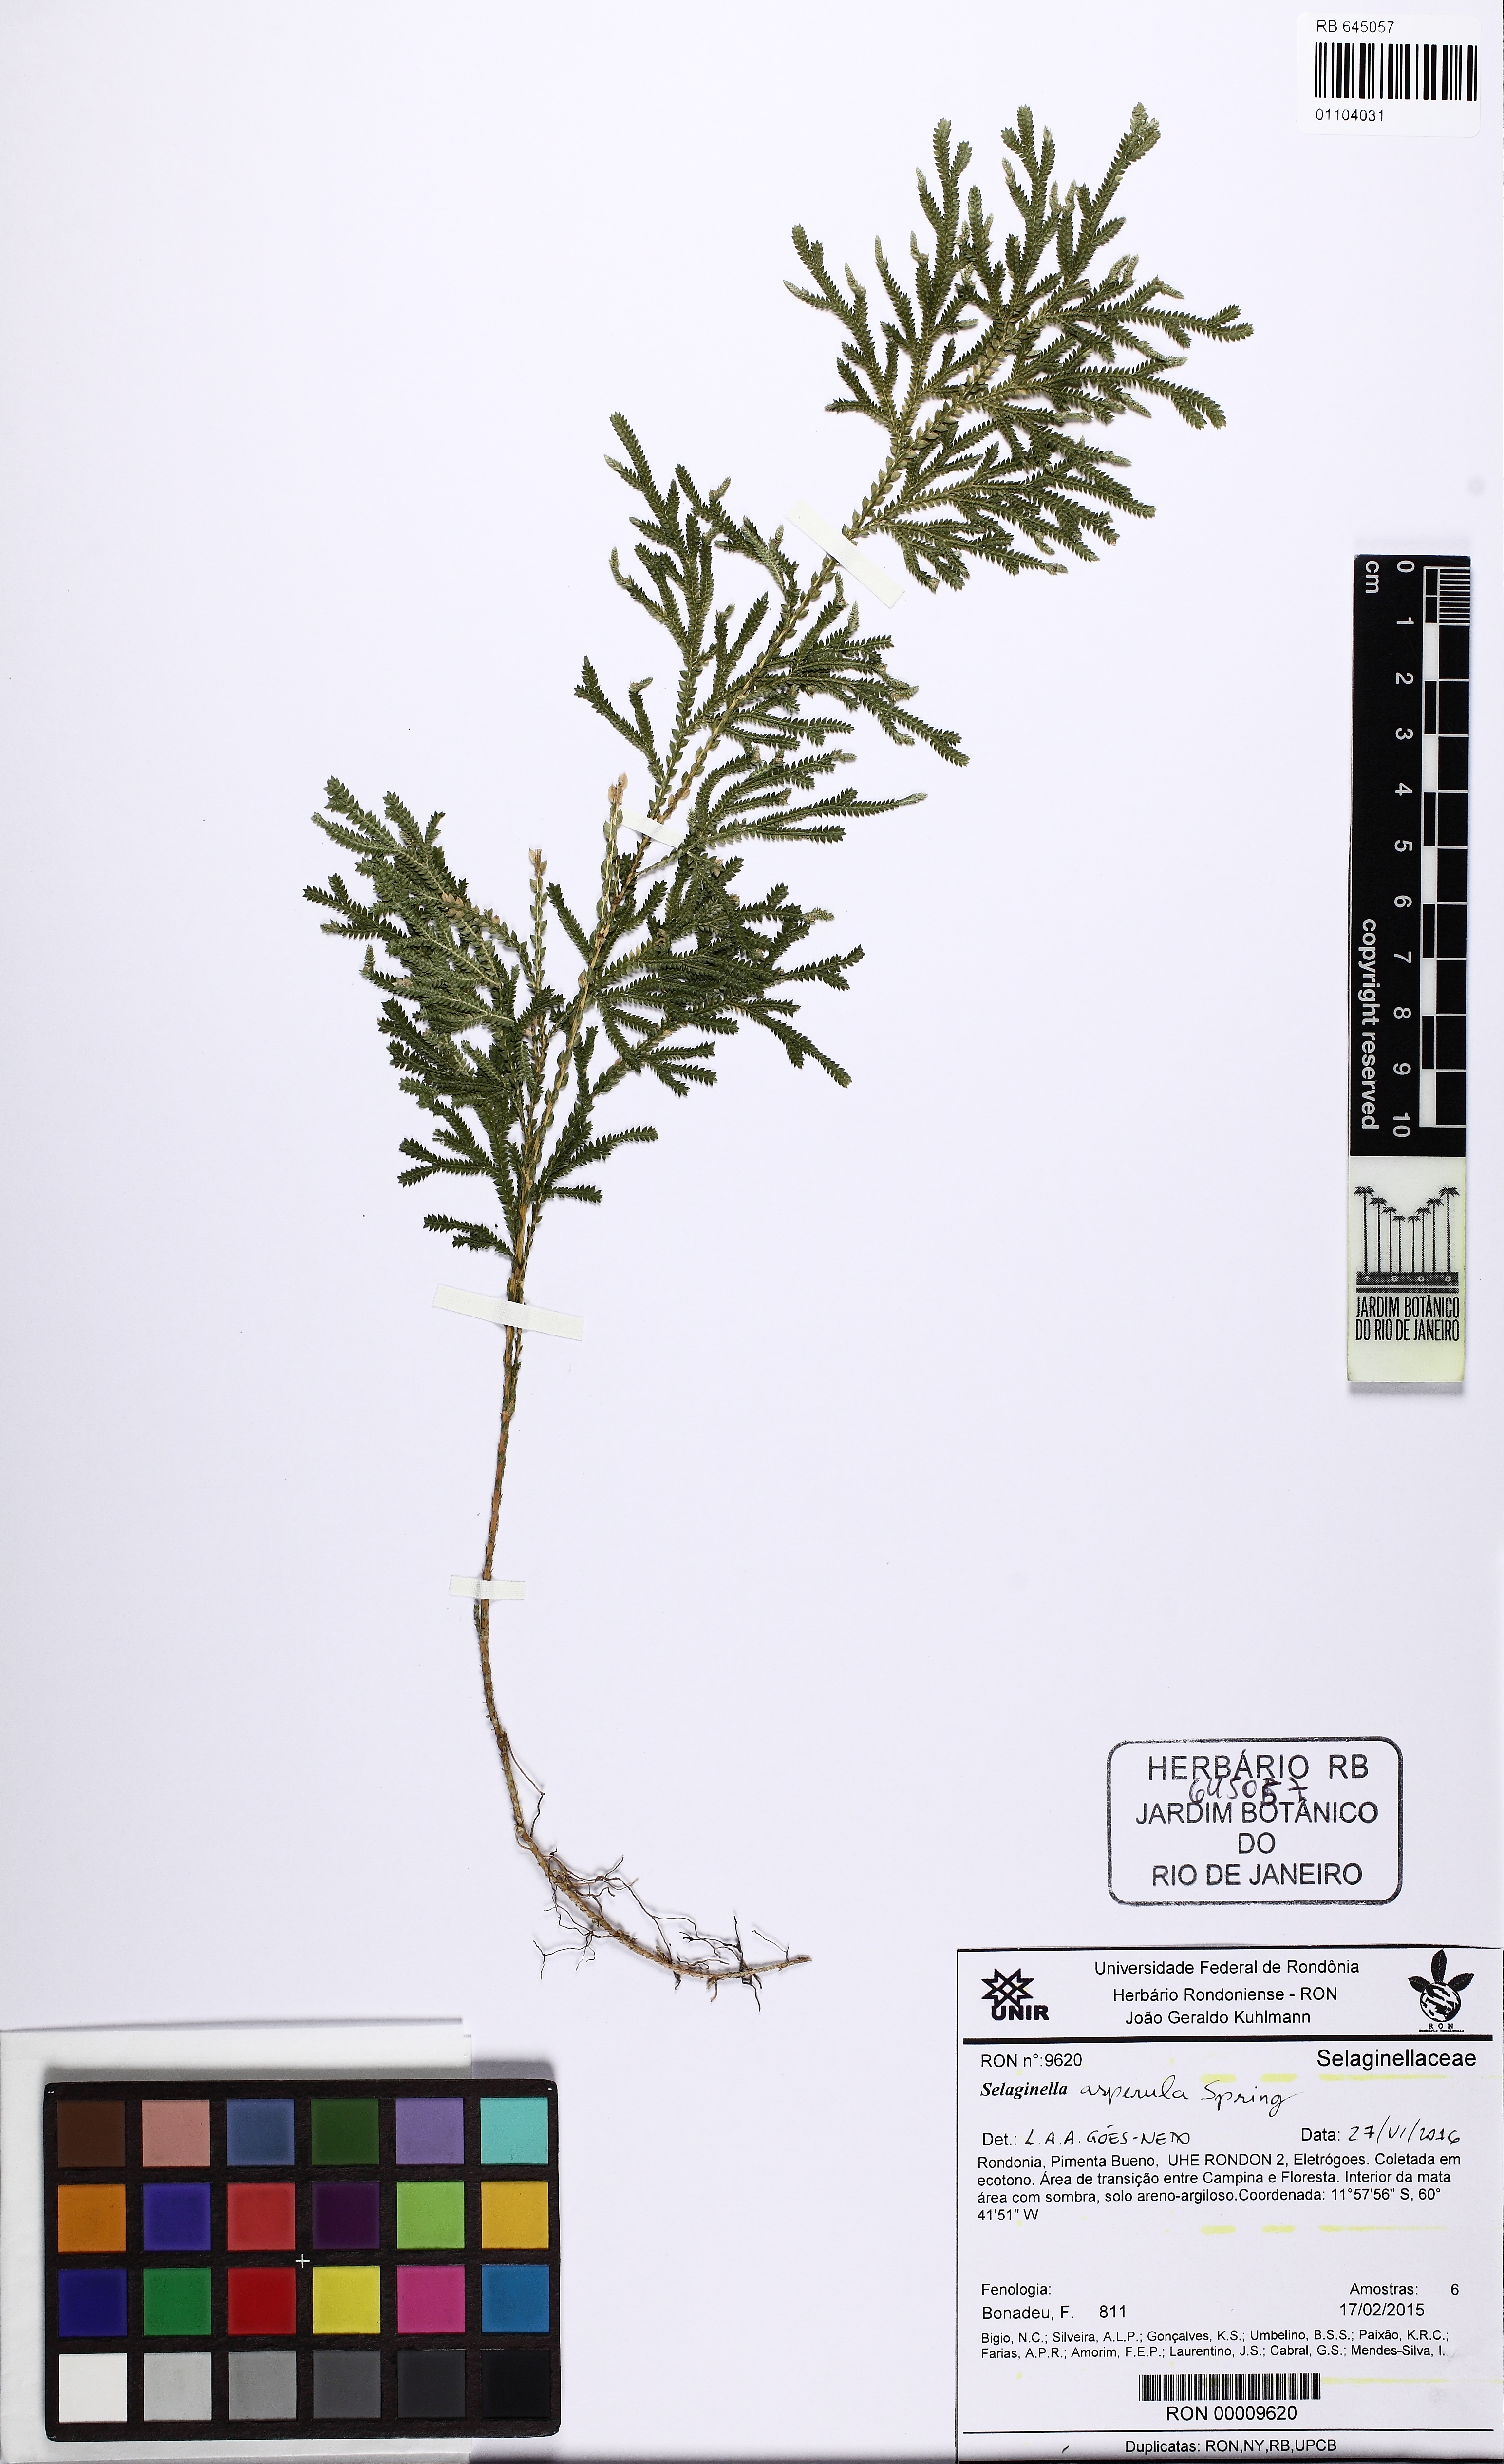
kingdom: Plantae
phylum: Tracheophyta
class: Lycopodiopsida
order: Selaginellales
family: Selaginellaceae
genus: Selaginella
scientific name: Selaginella asperula
